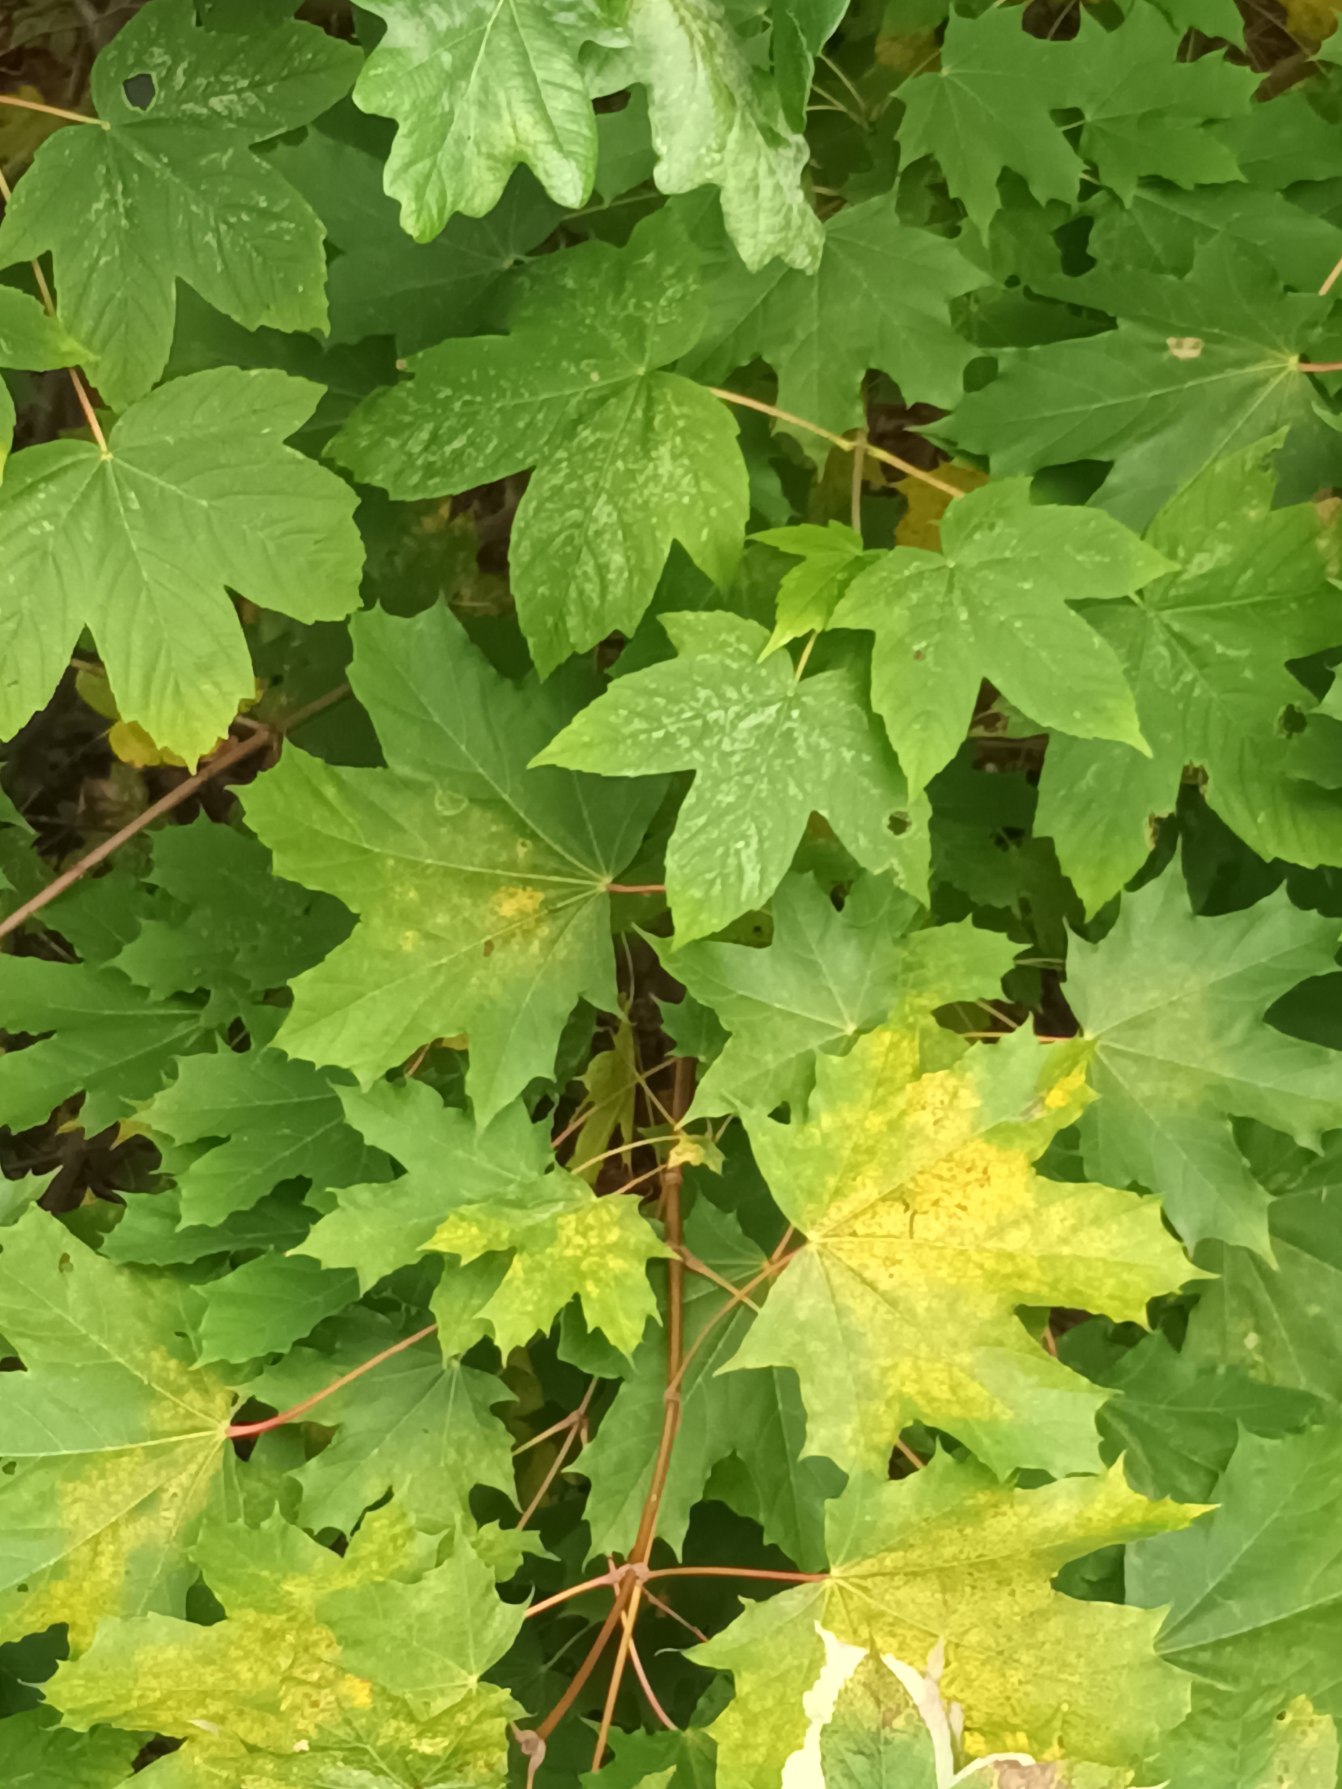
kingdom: Plantae
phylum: Tracheophyta
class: Magnoliopsida
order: Sapindales
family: Sapindaceae
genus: Acer
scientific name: Acer platanoides
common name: Spids-løn
